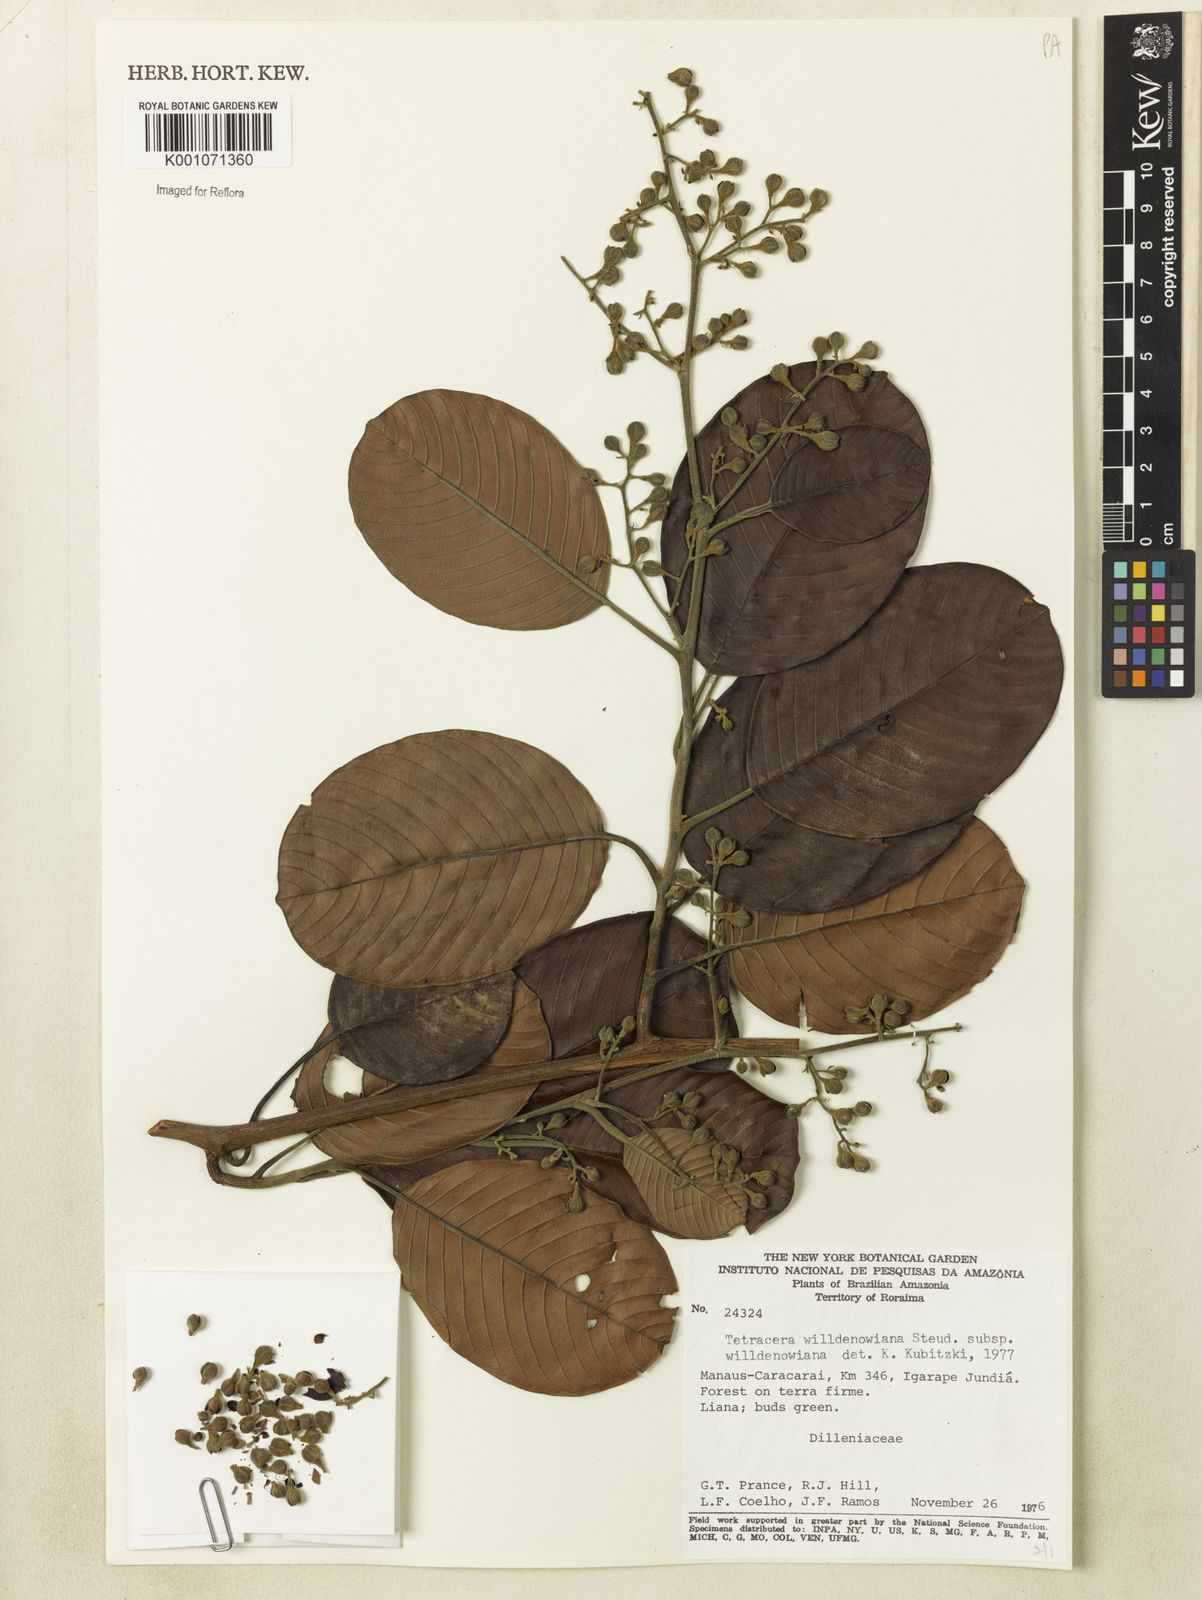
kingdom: Plantae
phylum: Tracheophyta
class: Magnoliopsida
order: Dilleniales
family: Dilleniaceae
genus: Tetracera
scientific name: Tetracera willdenowiana
